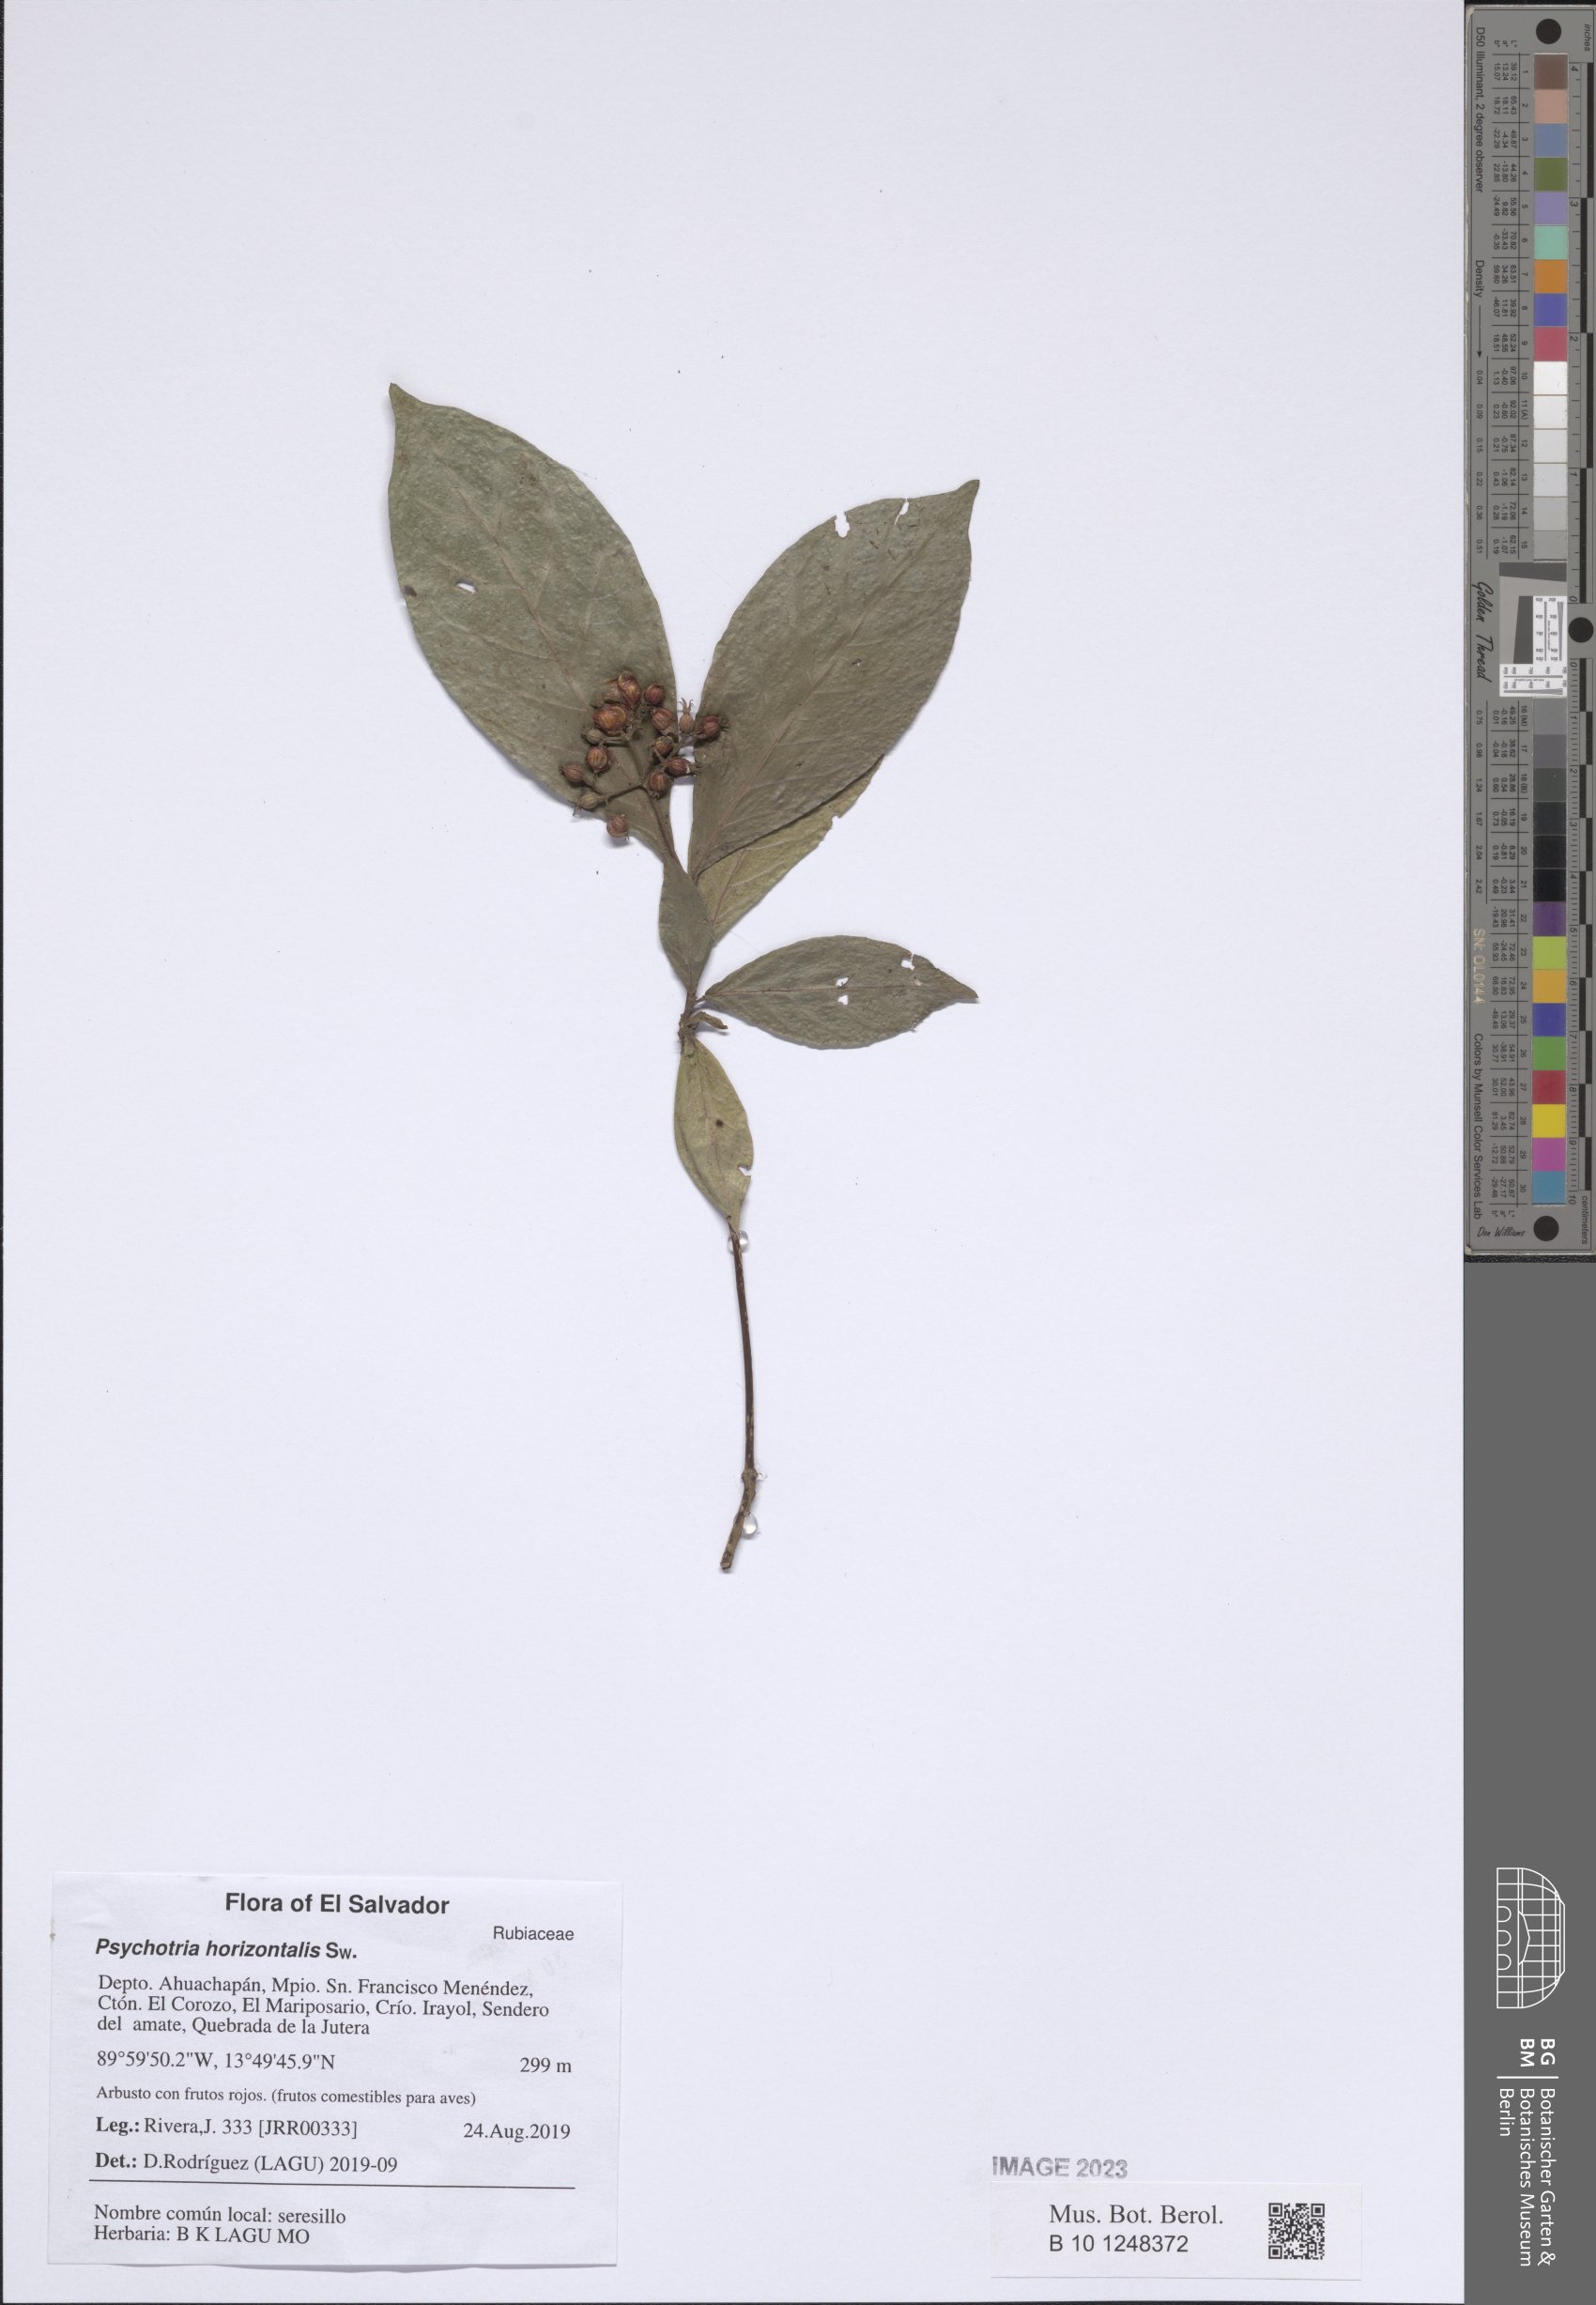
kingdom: Plantae
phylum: Tracheophyta
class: Magnoliopsida
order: Gentianales
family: Rubiaceae
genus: Psychotria
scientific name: Psychotria horizontalis
